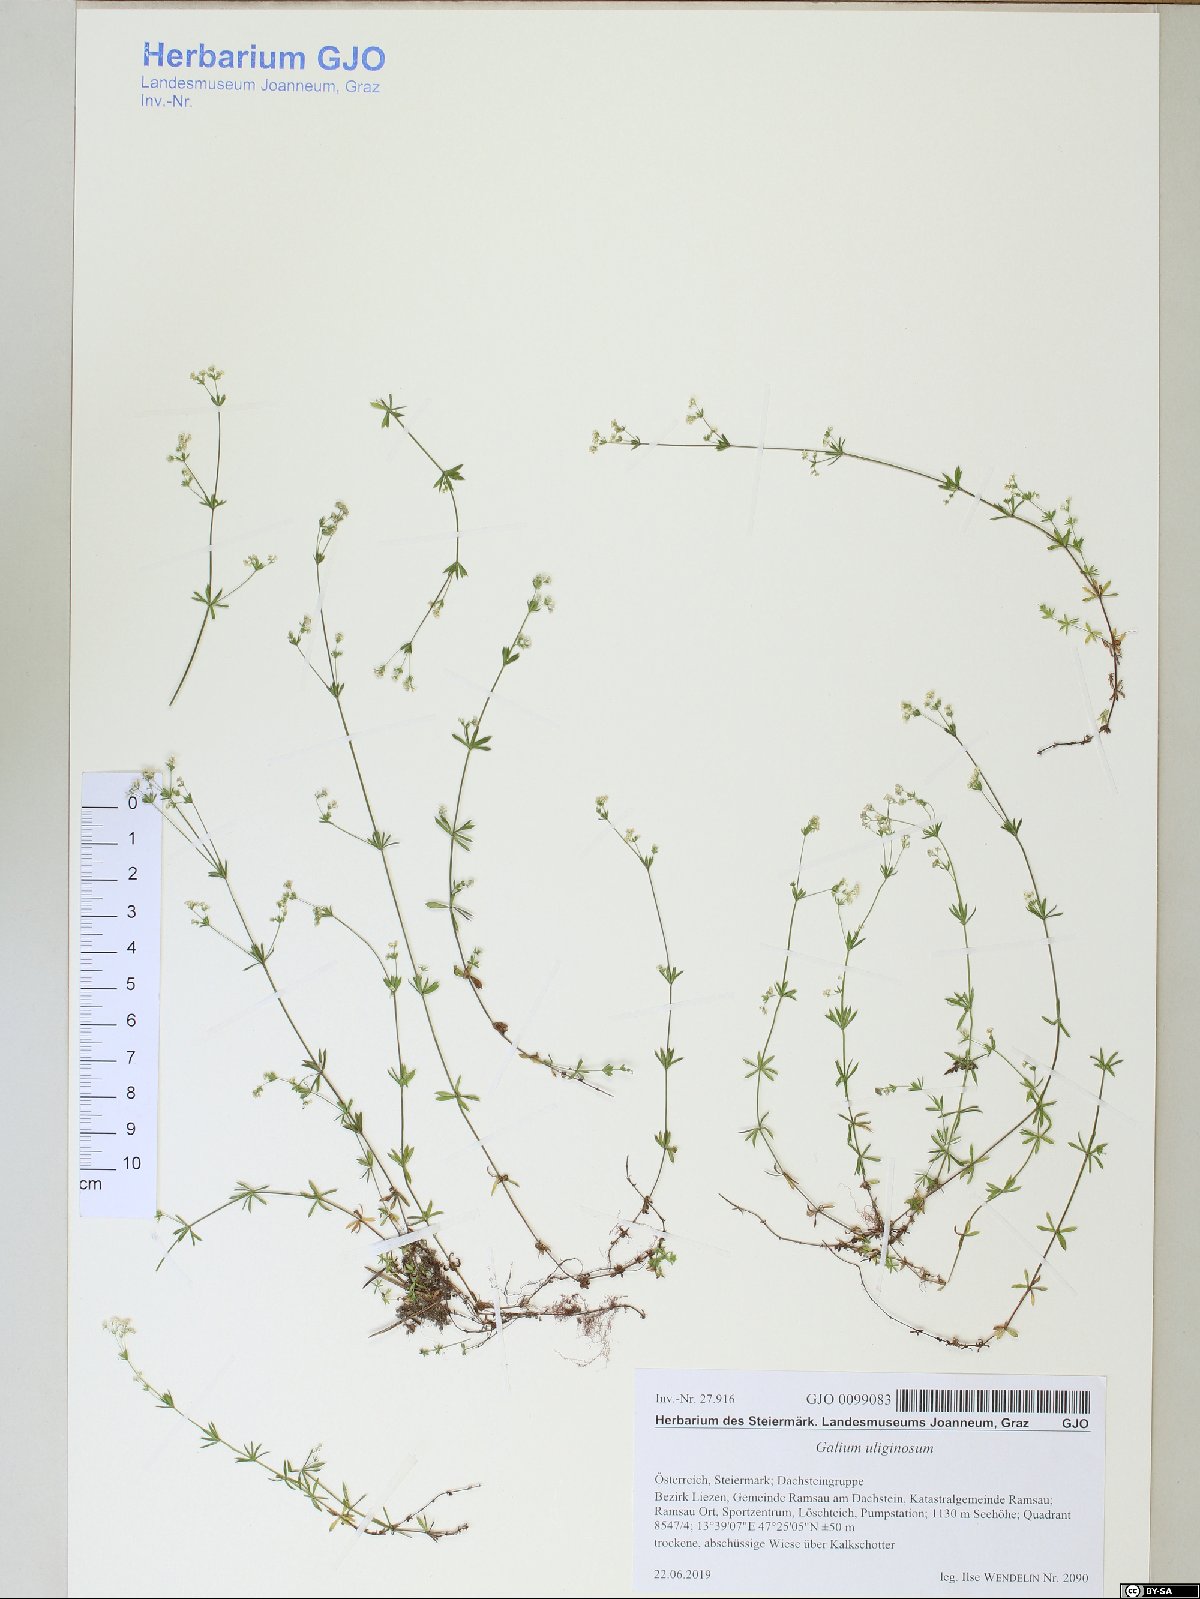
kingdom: Plantae
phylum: Tracheophyta
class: Magnoliopsida
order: Gentianales
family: Rubiaceae
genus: Galium
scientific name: Galium uliginosum
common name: Fen bedstraw
